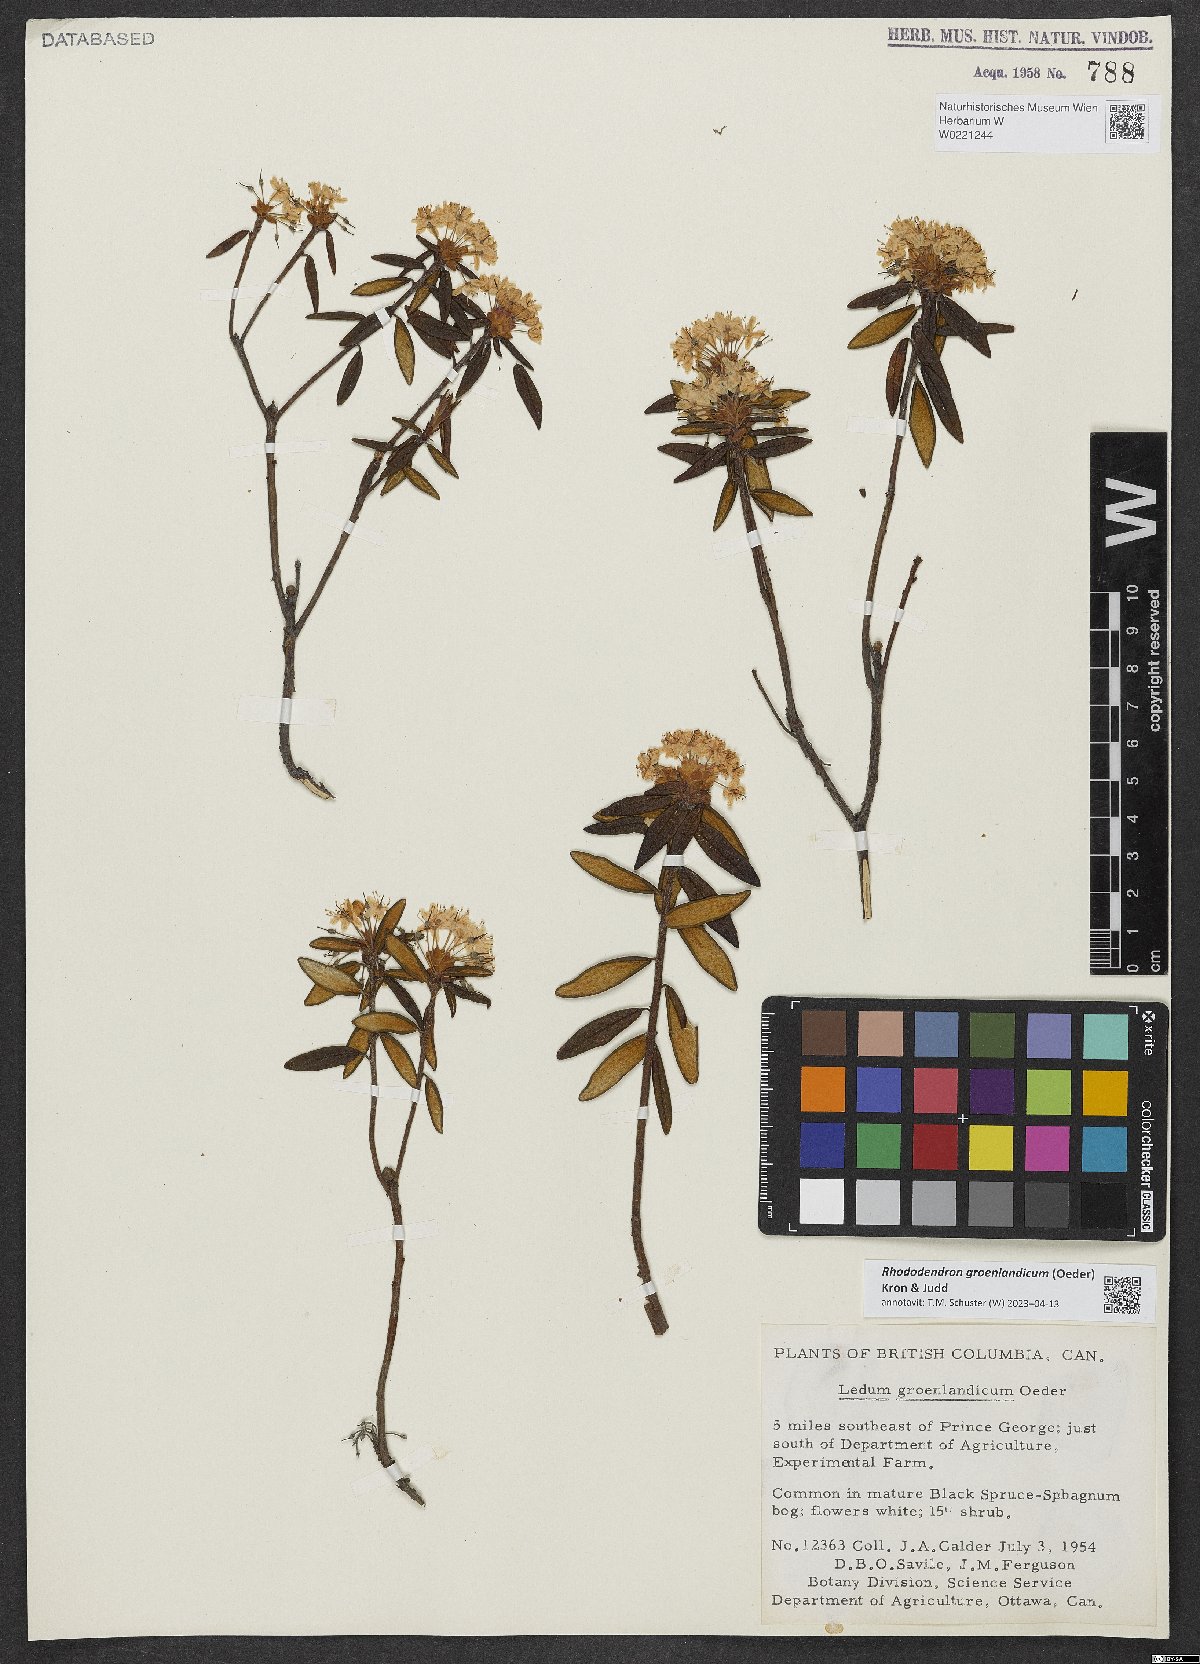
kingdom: Plantae
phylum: Tracheophyta
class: Magnoliopsida
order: Ericales
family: Ericaceae
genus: Rhododendron
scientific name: Rhododendron groenlandicum
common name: Bog labrador tea
